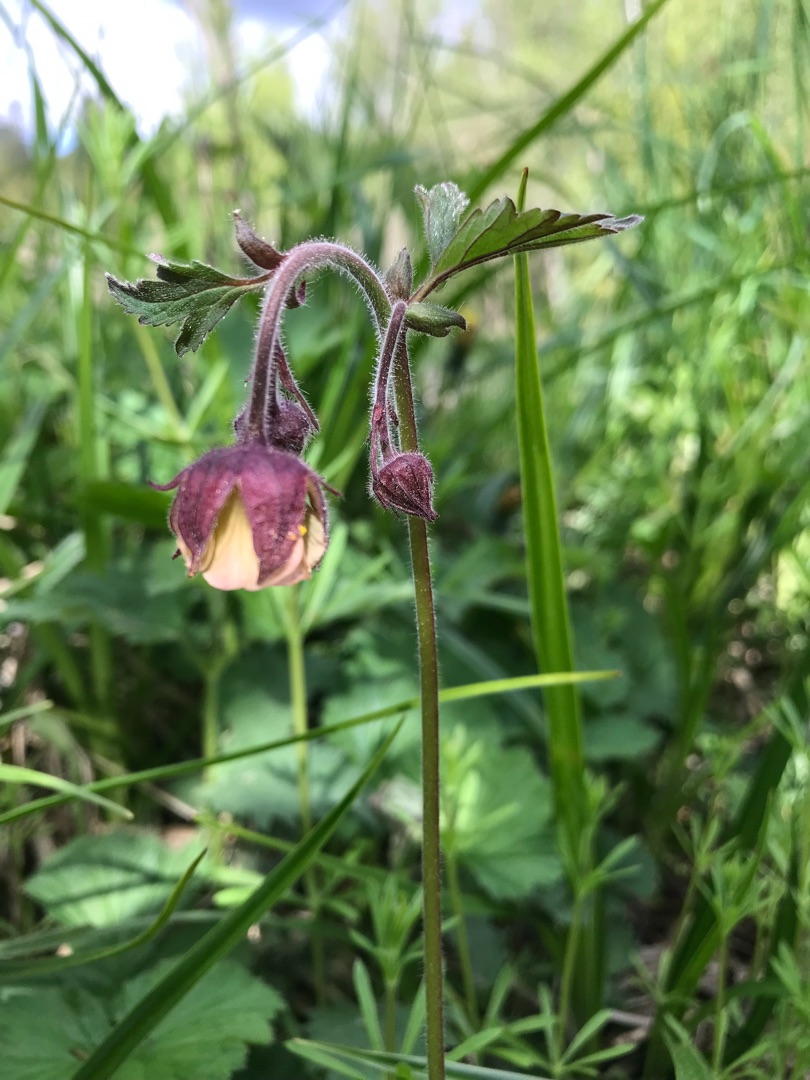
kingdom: Plantae
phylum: Tracheophyta
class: Magnoliopsida
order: Rosales
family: Rosaceae
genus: Geum
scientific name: Geum rivale
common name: Eng-nellikerod
